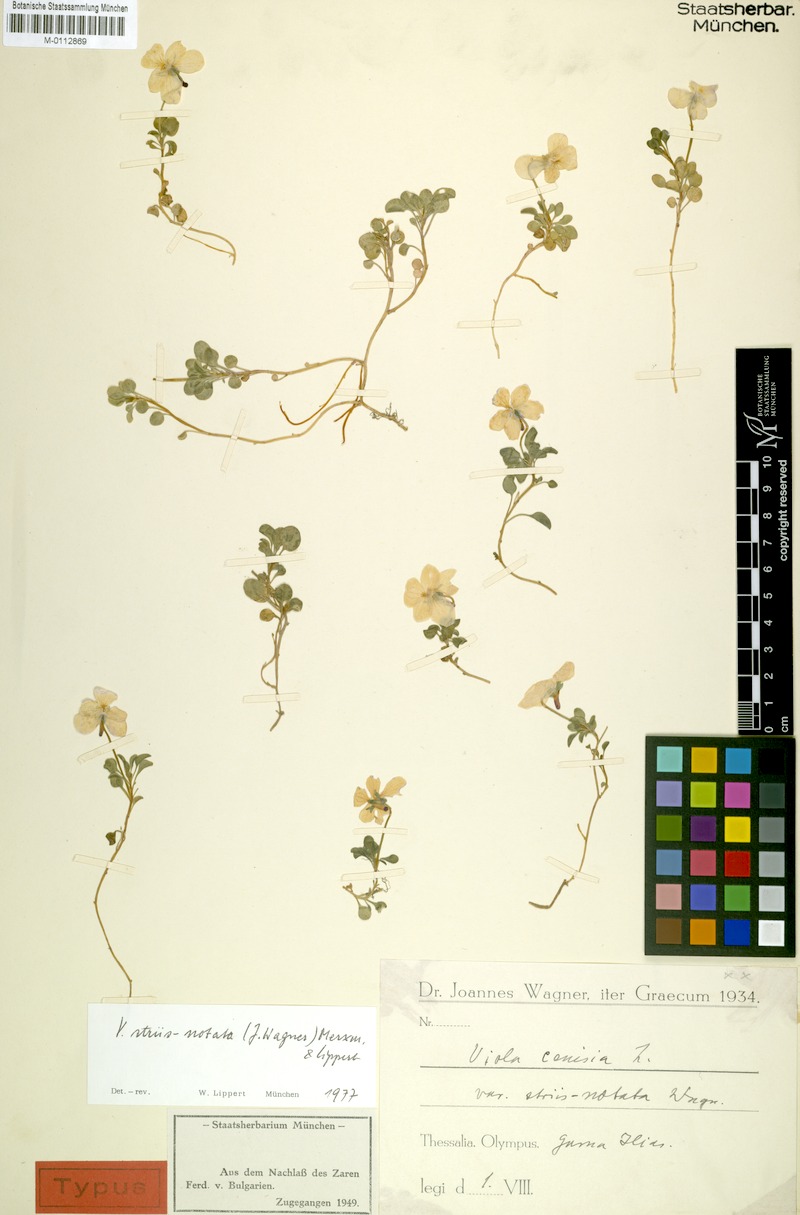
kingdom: Plantae
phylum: Tracheophyta
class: Magnoliopsida
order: Malpighiales
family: Violaceae
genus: Viola
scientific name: Viola striis-notata
